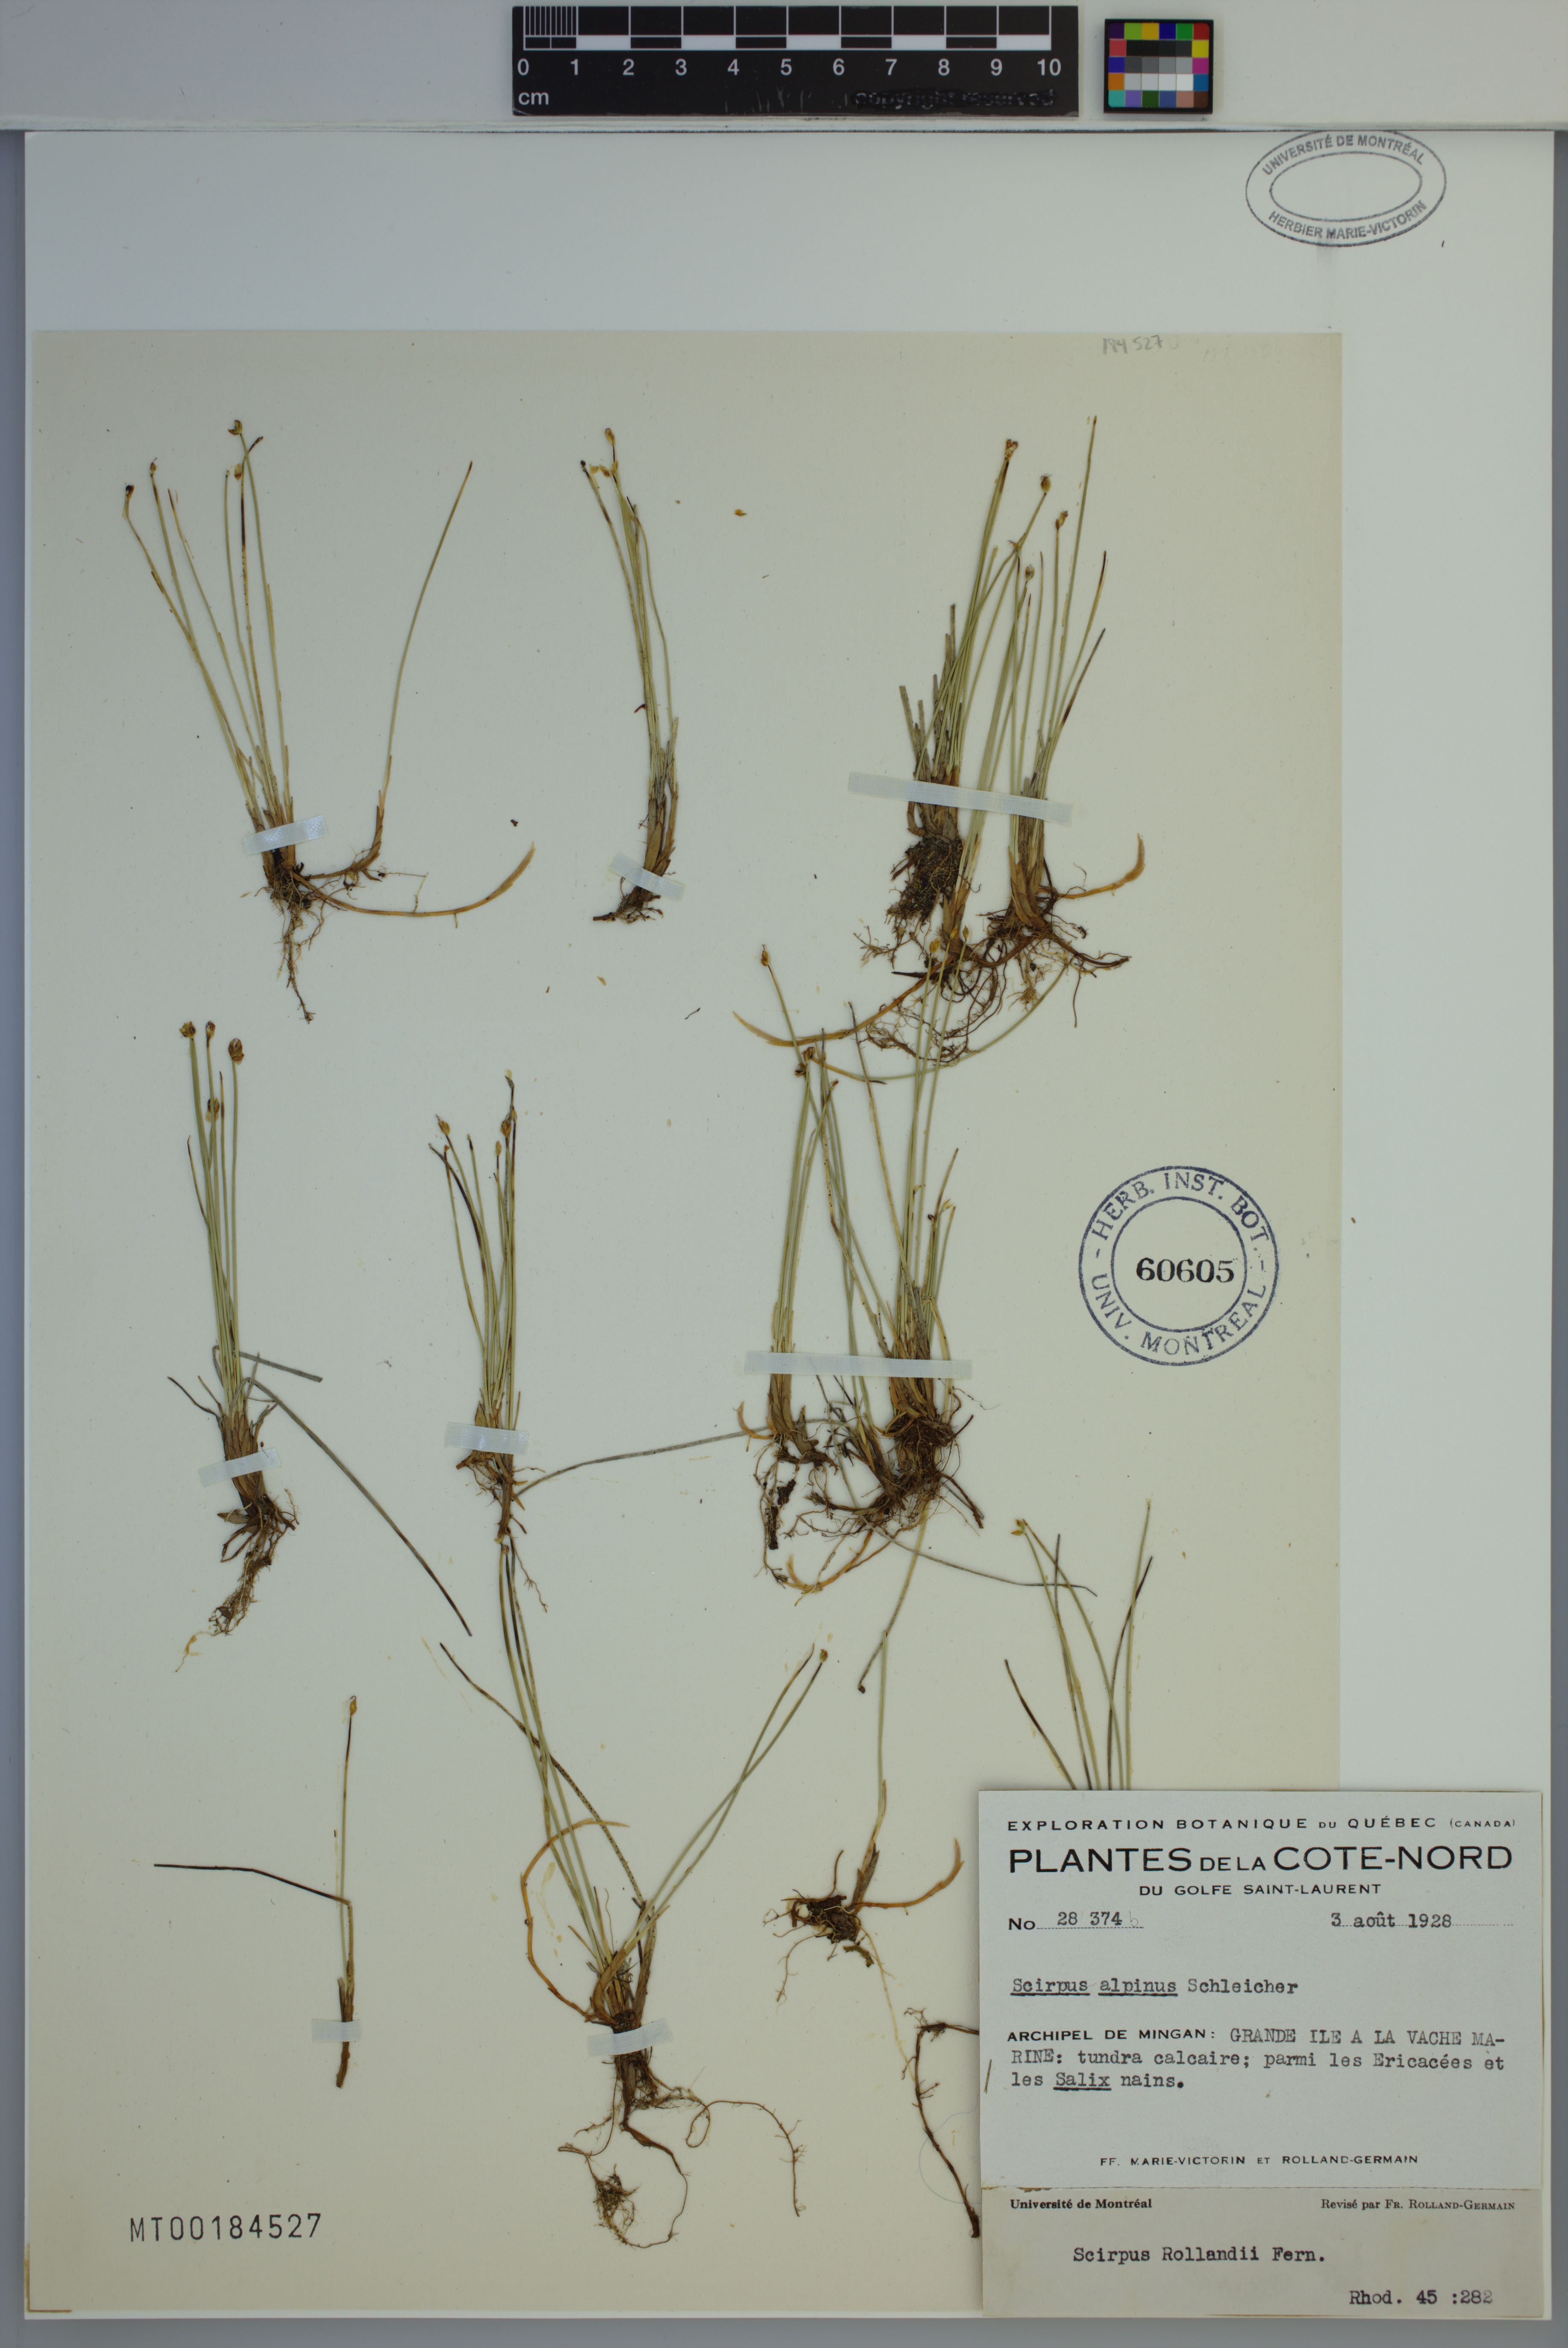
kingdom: Plantae
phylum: Tracheophyta
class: Liliopsida
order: Poales
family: Cyperaceae
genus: Trichophorum
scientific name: Trichophorum pumilum
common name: Rolland's bulrush
